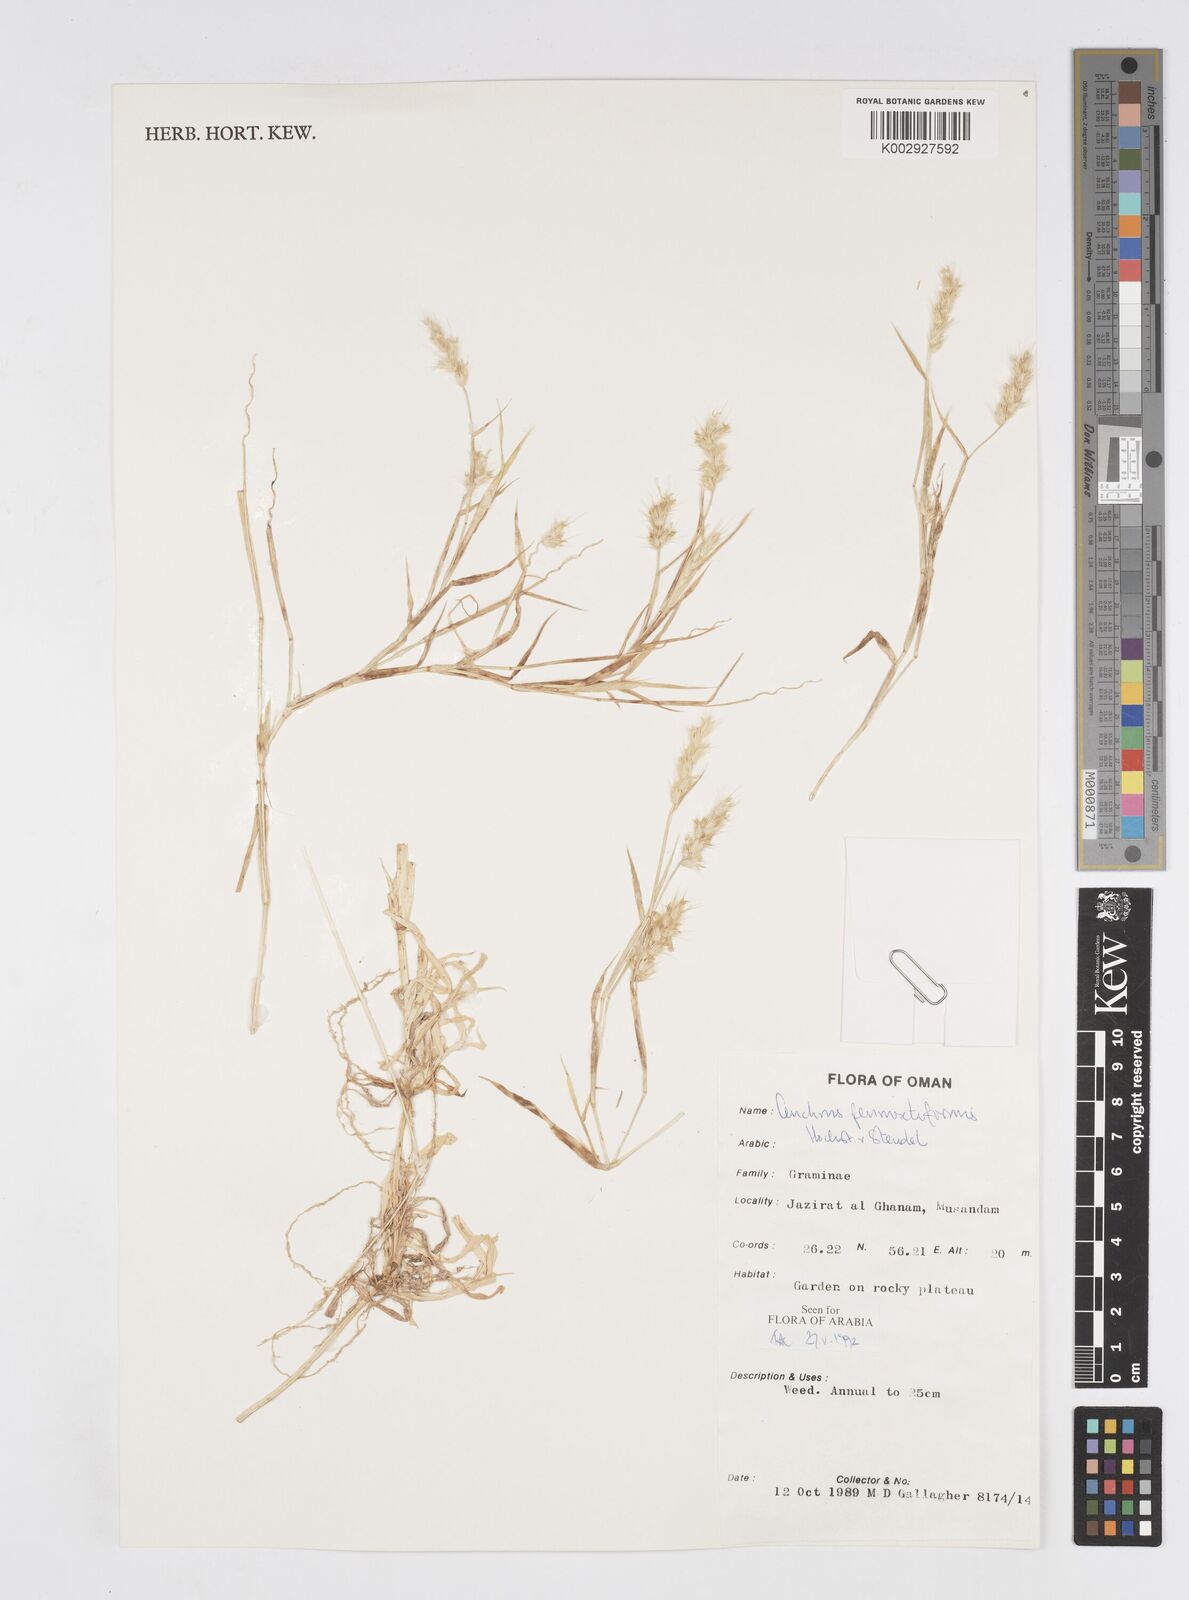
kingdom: Plantae
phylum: Tracheophyta
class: Liliopsida
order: Poales
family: Poaceae
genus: Cenchrus
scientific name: Cenchrus pennisetiformis
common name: Cloncurry
